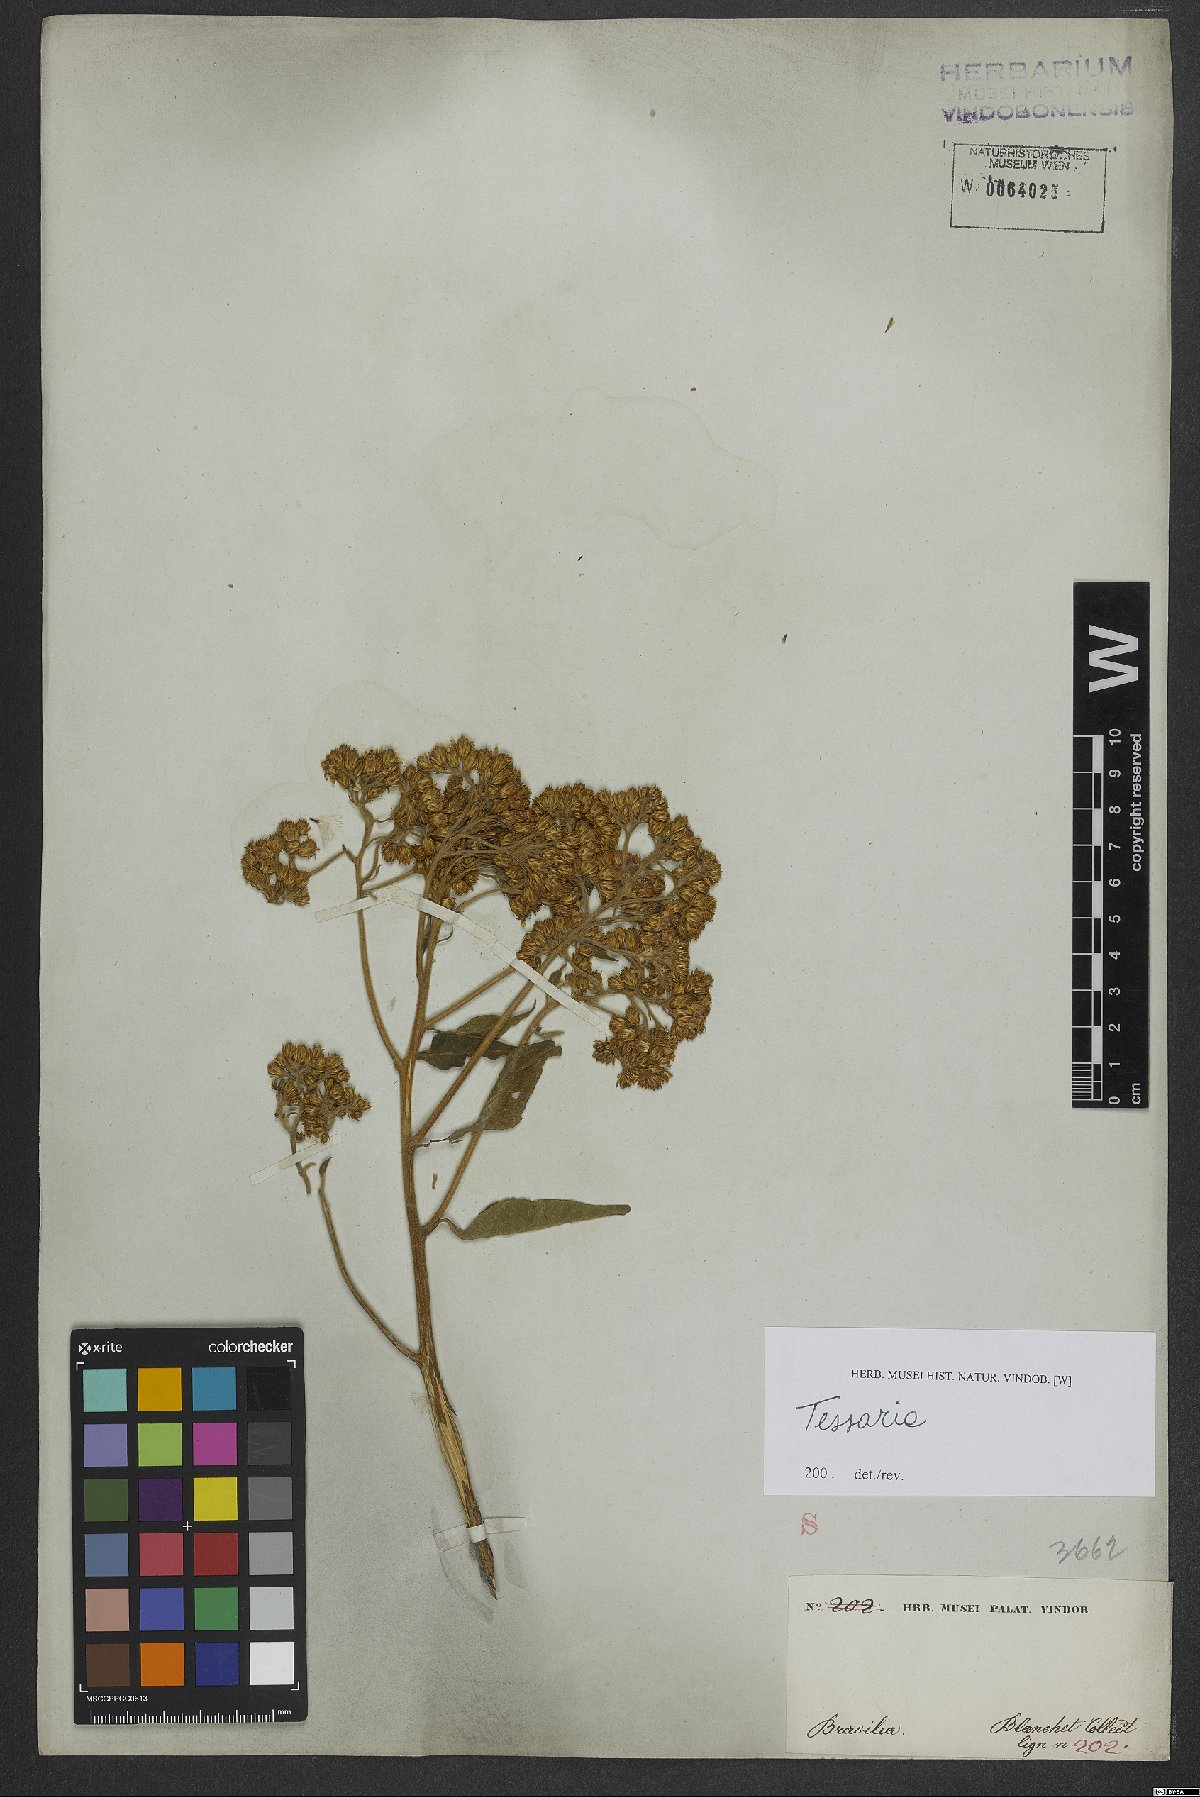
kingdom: Plantae
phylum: Tracheophyta
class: Magnoliopsida
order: Asterales
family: Asteraceae
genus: Tessaria
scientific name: Tessaria
